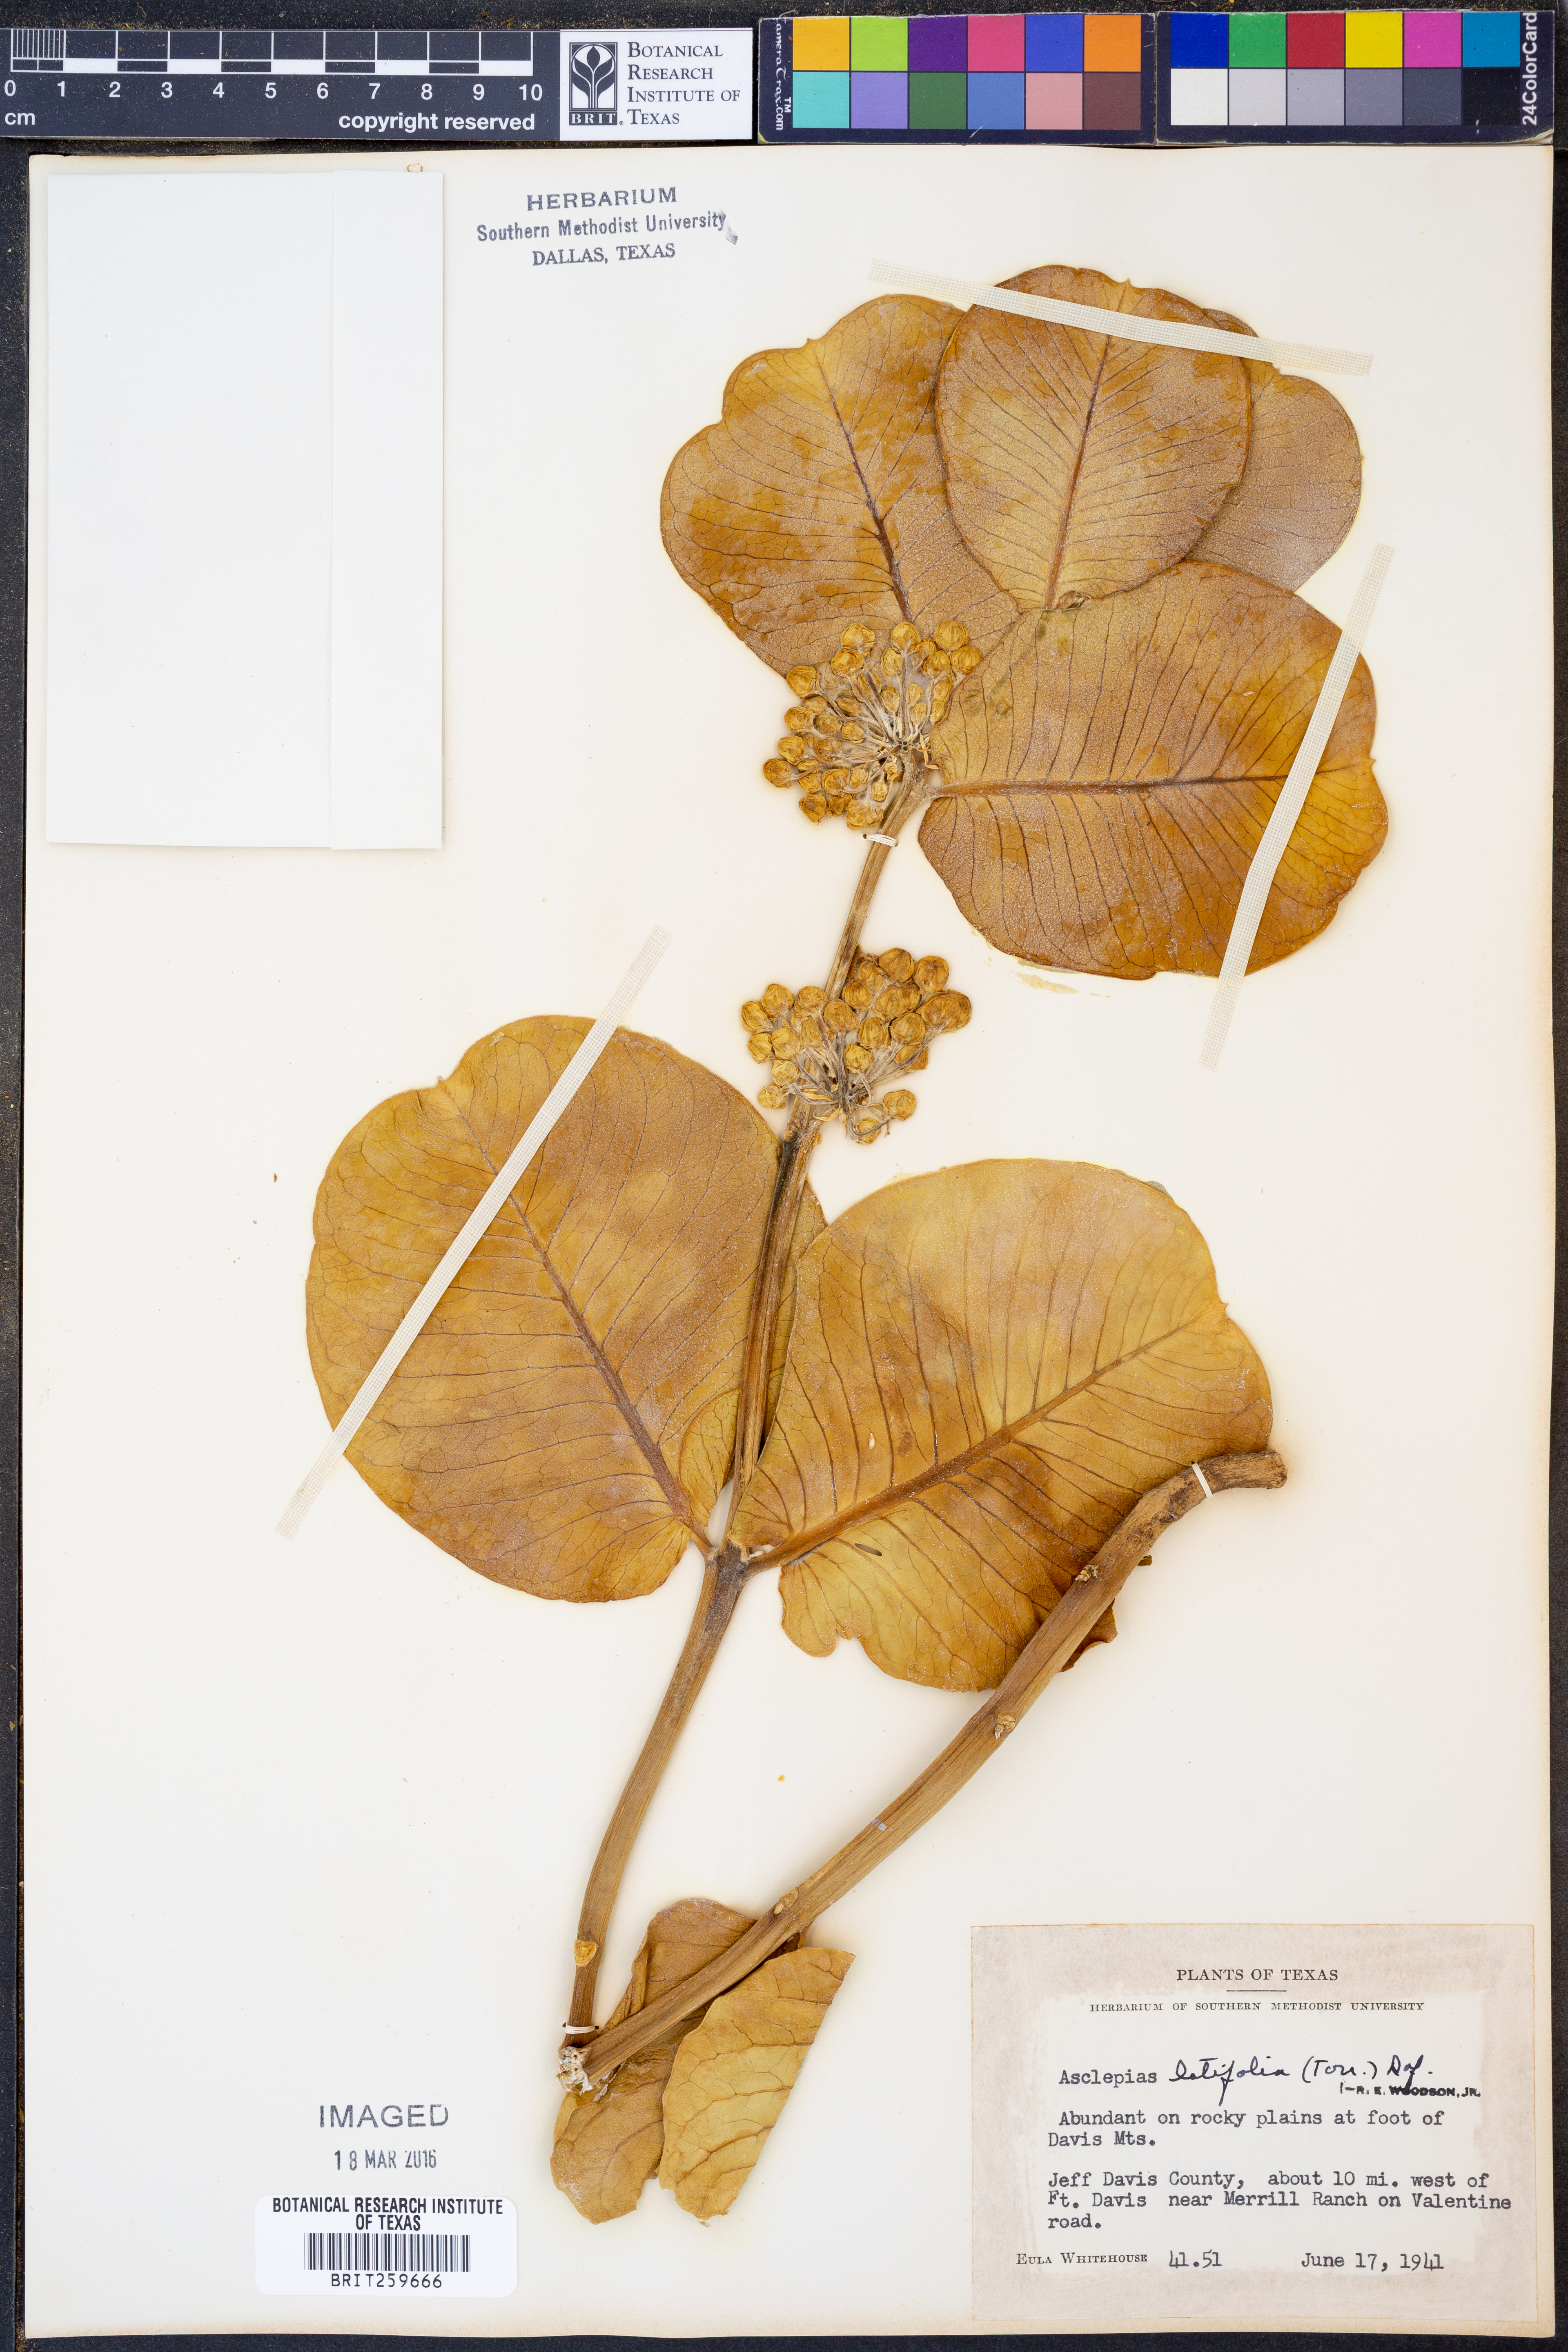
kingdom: Plantae
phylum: Tracheophyta
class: Magnoliopsida
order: Gentianales
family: Apocynaceae
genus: Asclepias
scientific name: Asclepias latifolia
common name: Broadleaf milkweed
